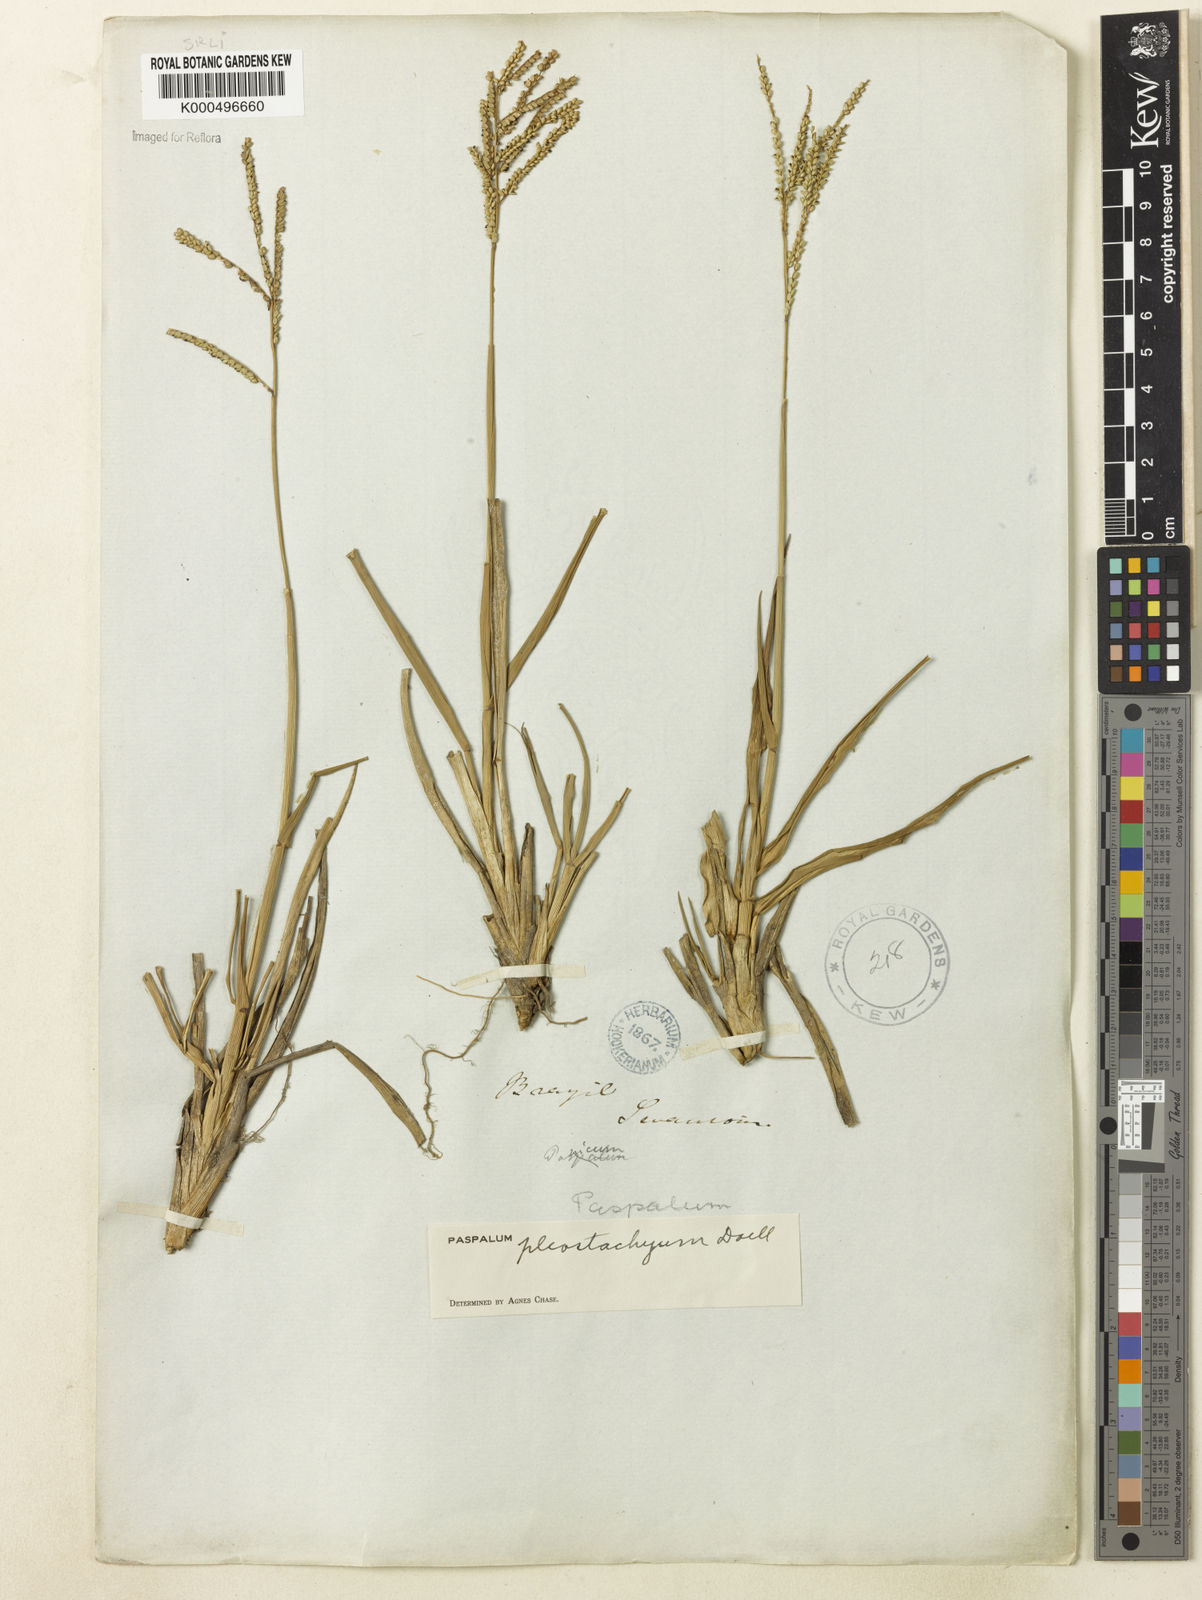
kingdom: Plantae
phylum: Tracheophyta
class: Liliopsida
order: Poales
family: Poaceae
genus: Paspalum
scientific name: Paspalum
